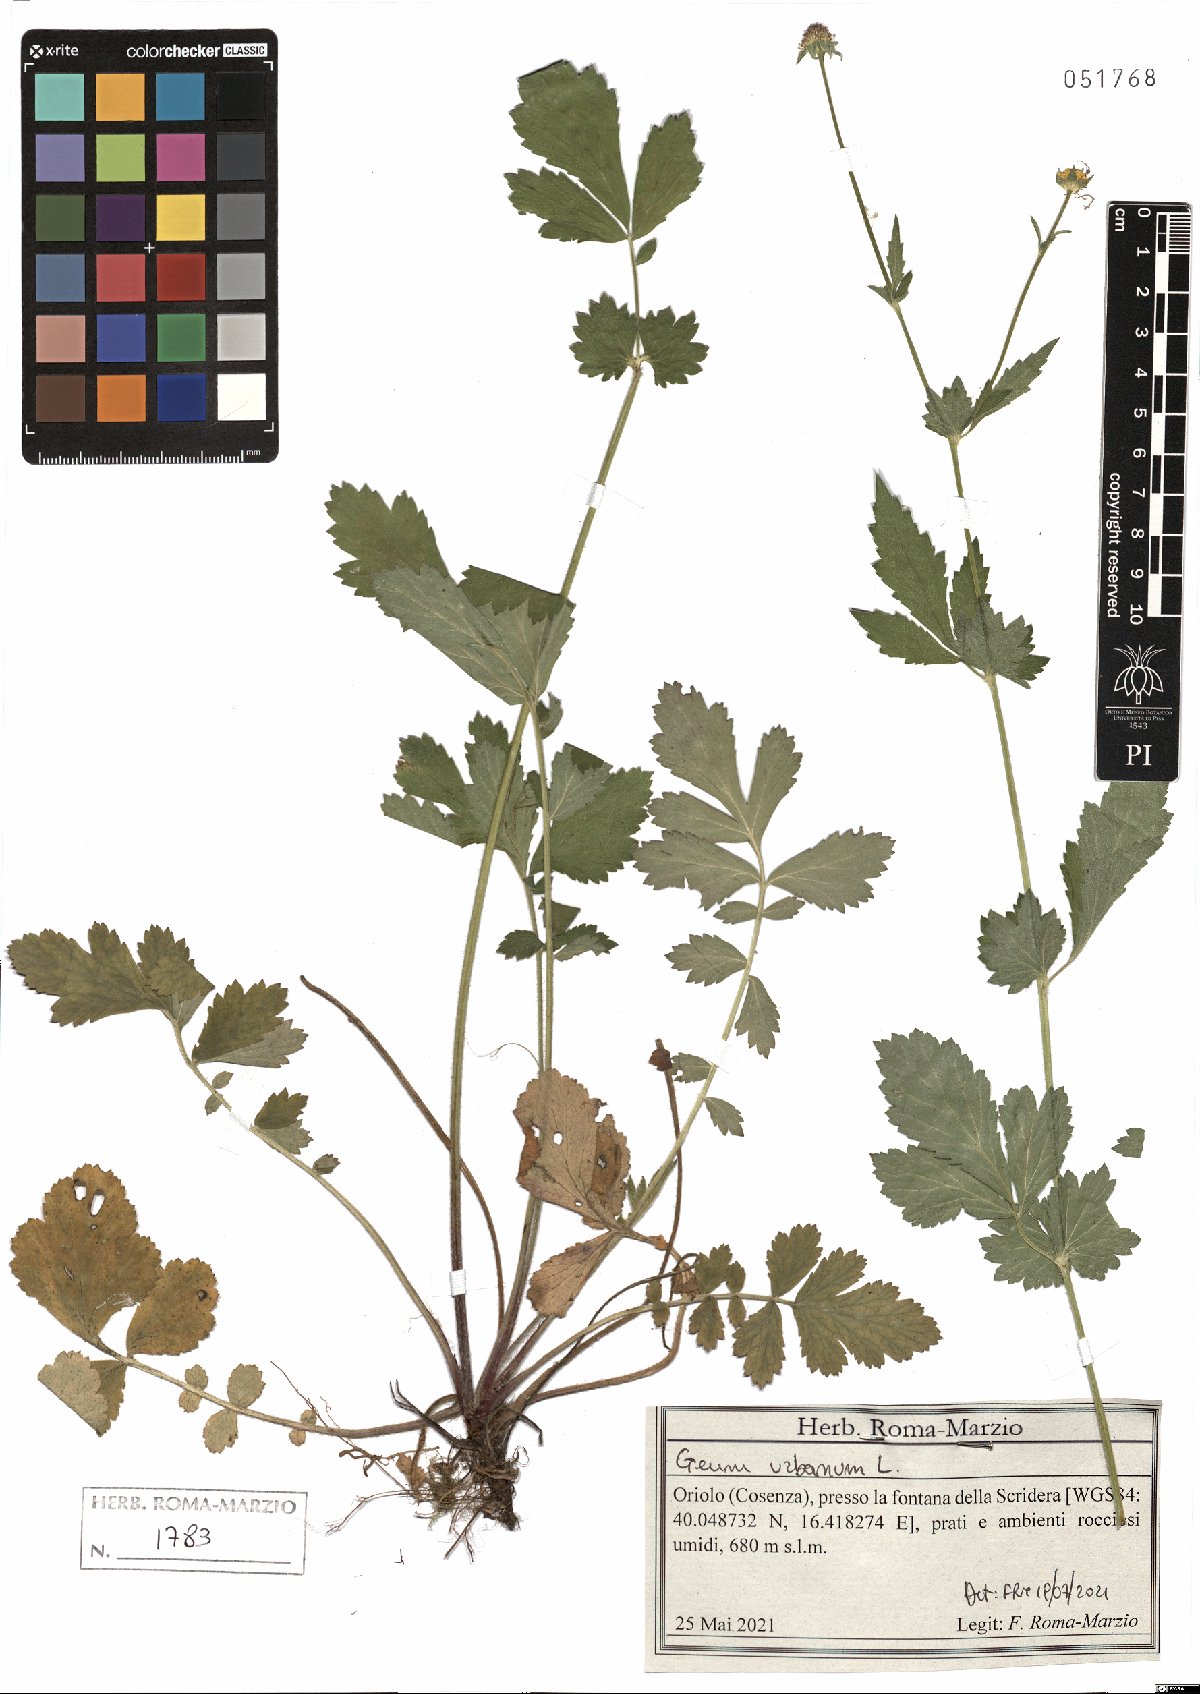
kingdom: Plantae
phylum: Tracheophyta
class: Magnoliopsida
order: Rosales
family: Rosaceae
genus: Geum
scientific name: Geum urbanum
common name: Wood avens
